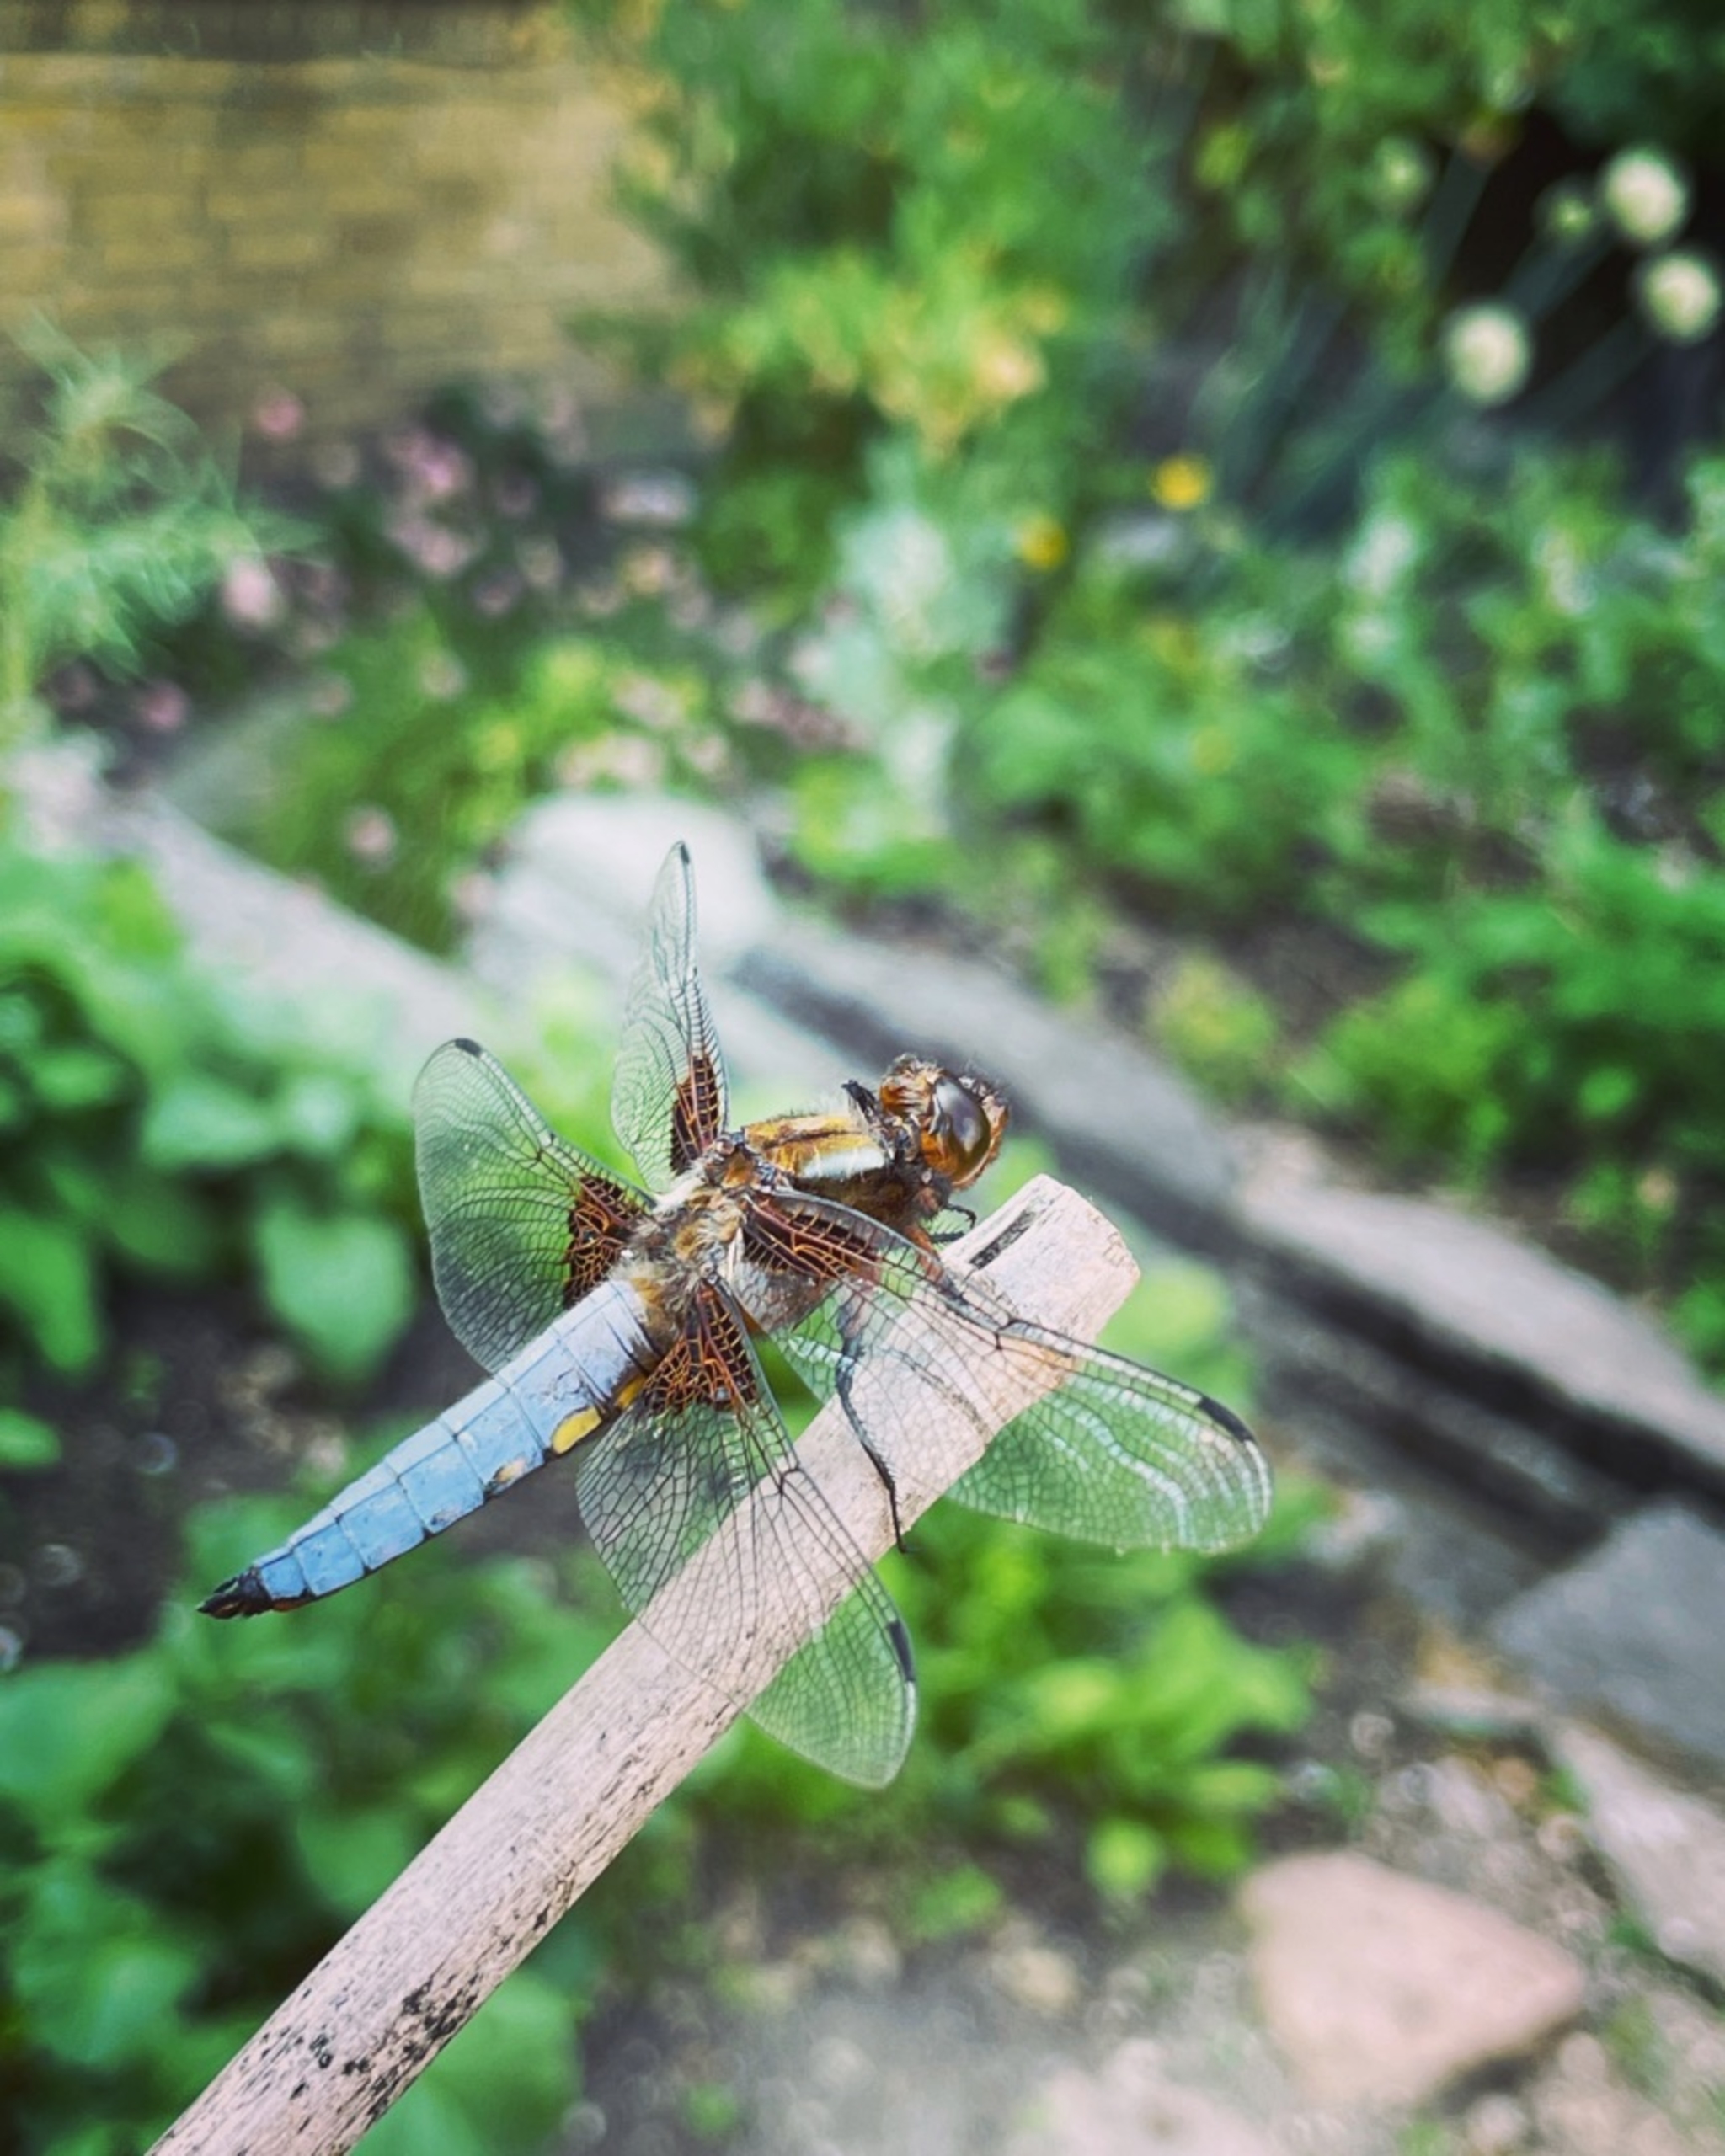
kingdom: Animalia
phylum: Arthropoda
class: Insecta
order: Odonata
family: Libellulidae
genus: Libellula
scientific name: Libellula depressa
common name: Blå libel
